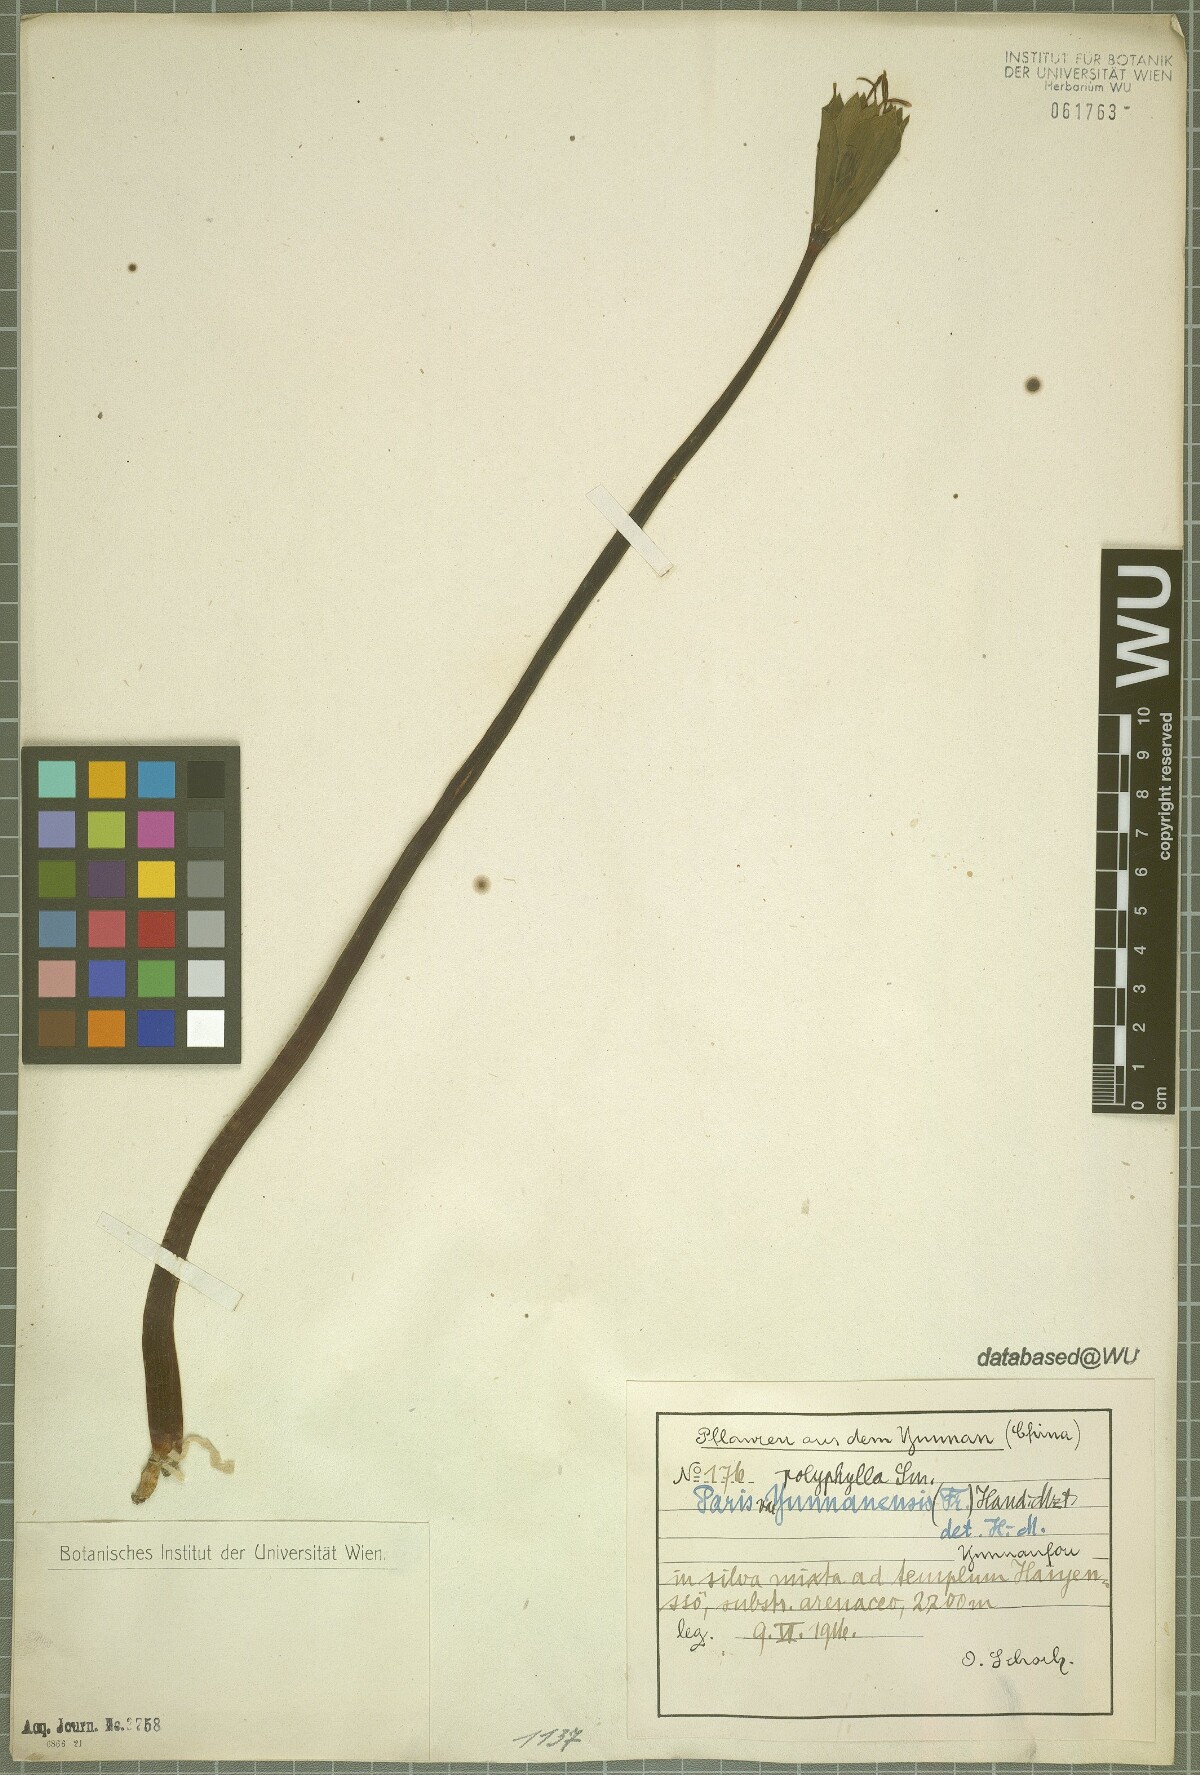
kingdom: Plantae
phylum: Tracheophyta
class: Liliopsida
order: Liliales
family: Melanthiaceae
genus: Paris
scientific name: Paris yunnanensis
